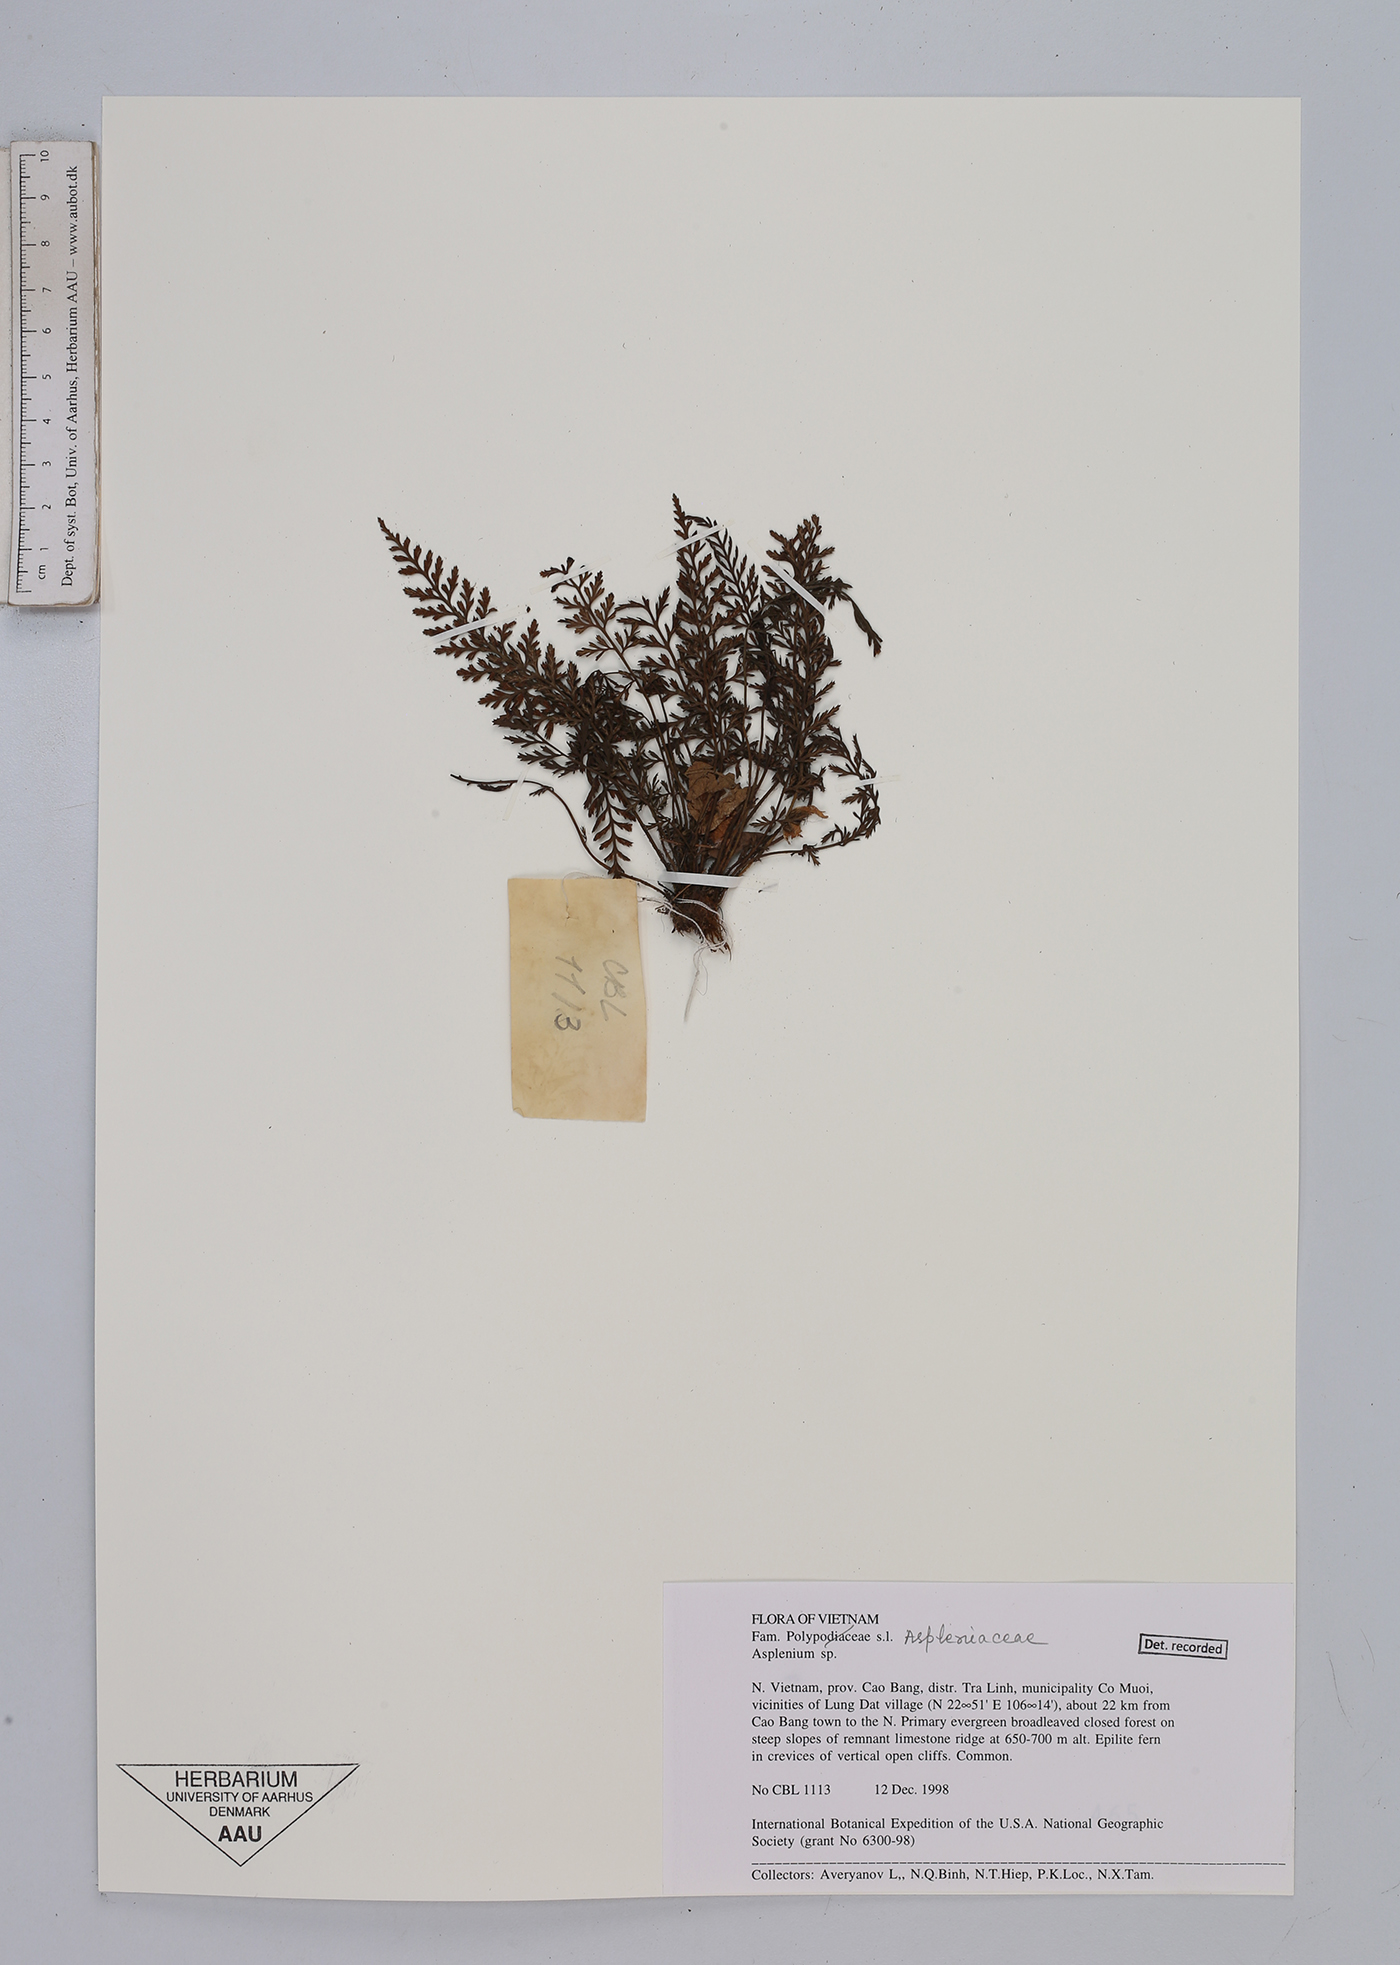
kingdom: Plantae
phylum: Tracheophyta
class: Polypodiopsida
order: Polypodiales
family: Aspleniaceae
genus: Asplenium
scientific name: Asplenium
